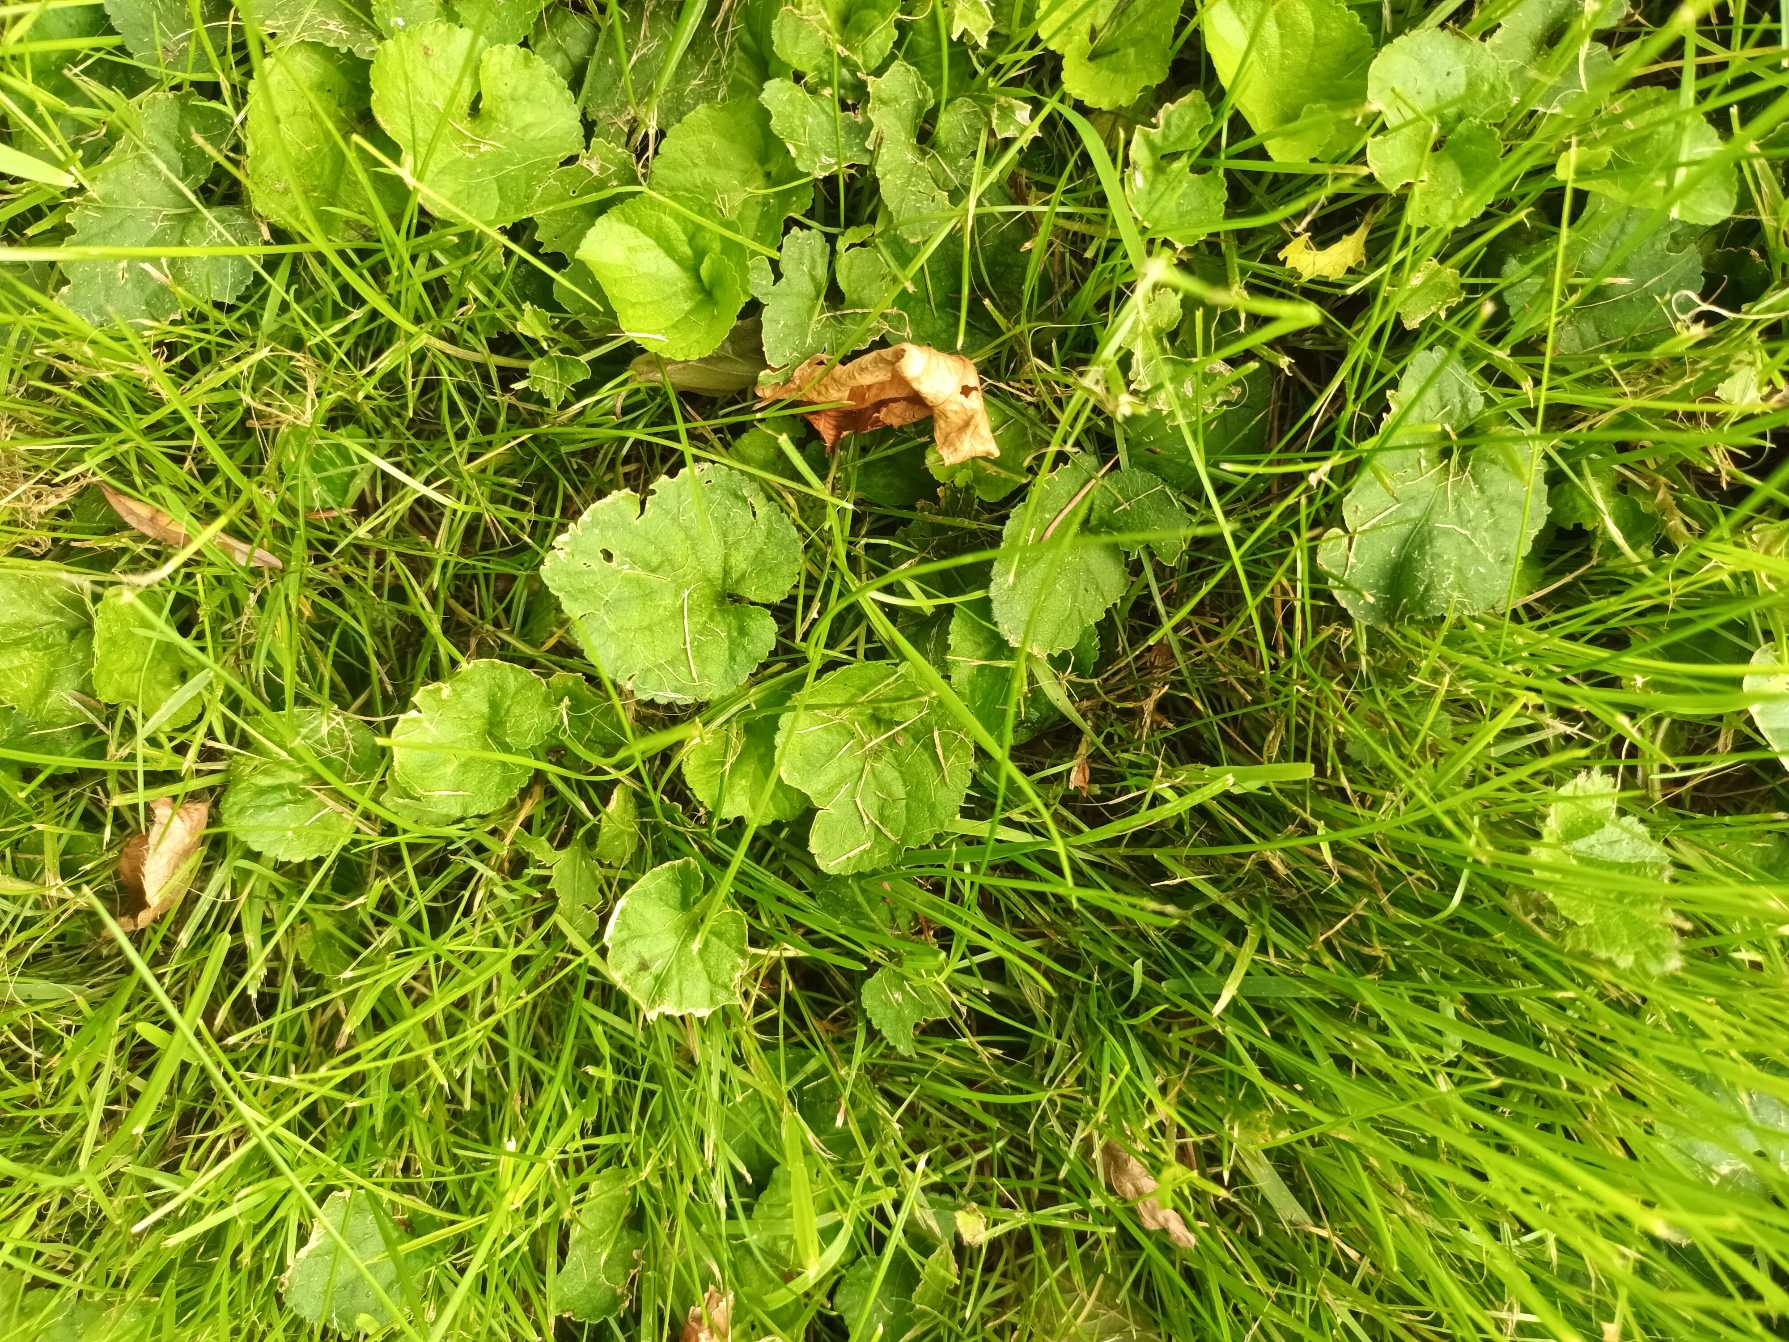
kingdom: Plantae
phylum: Tracheophyta
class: Magnoliopsida
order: Malpighiales
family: Violaceae
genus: Viola
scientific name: Viola odorata
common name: Marts-viol
